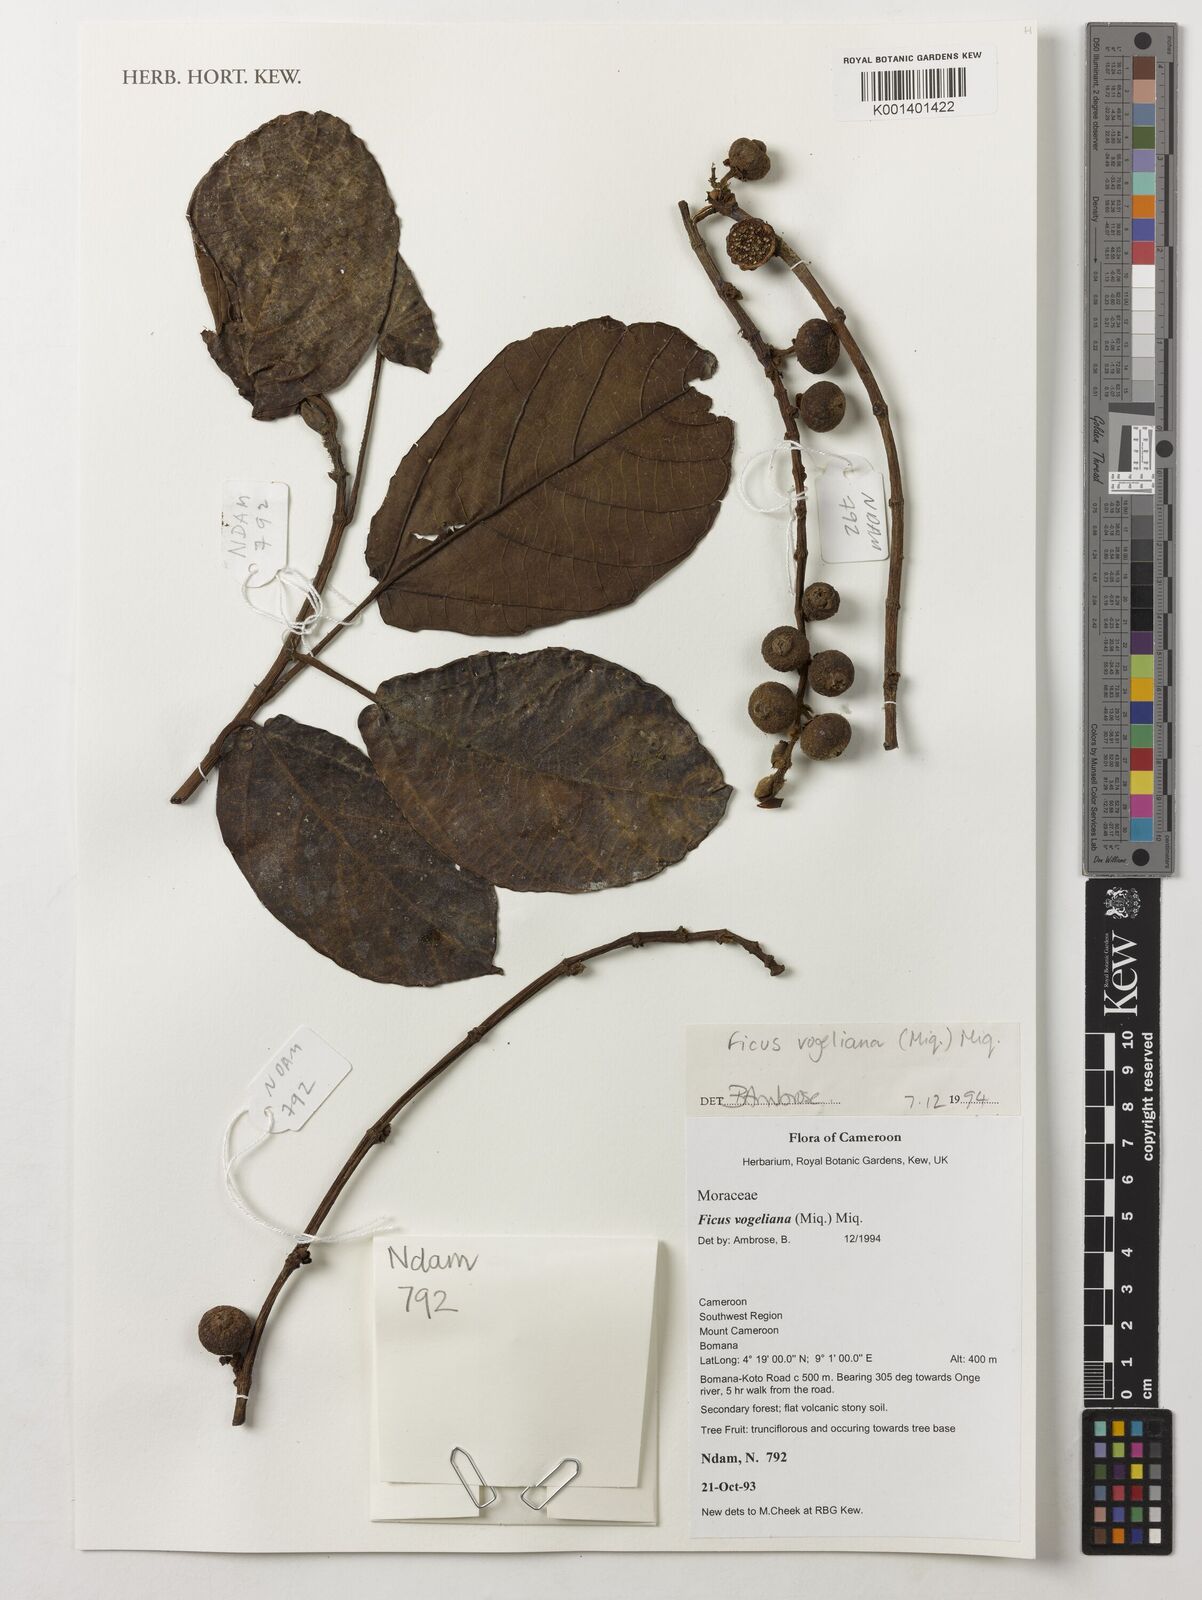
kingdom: Plantae
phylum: Tracheophyta
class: Magnoliopsida
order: Rosales
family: Moraceae
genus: Ficus
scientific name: Ficus vogeliana
